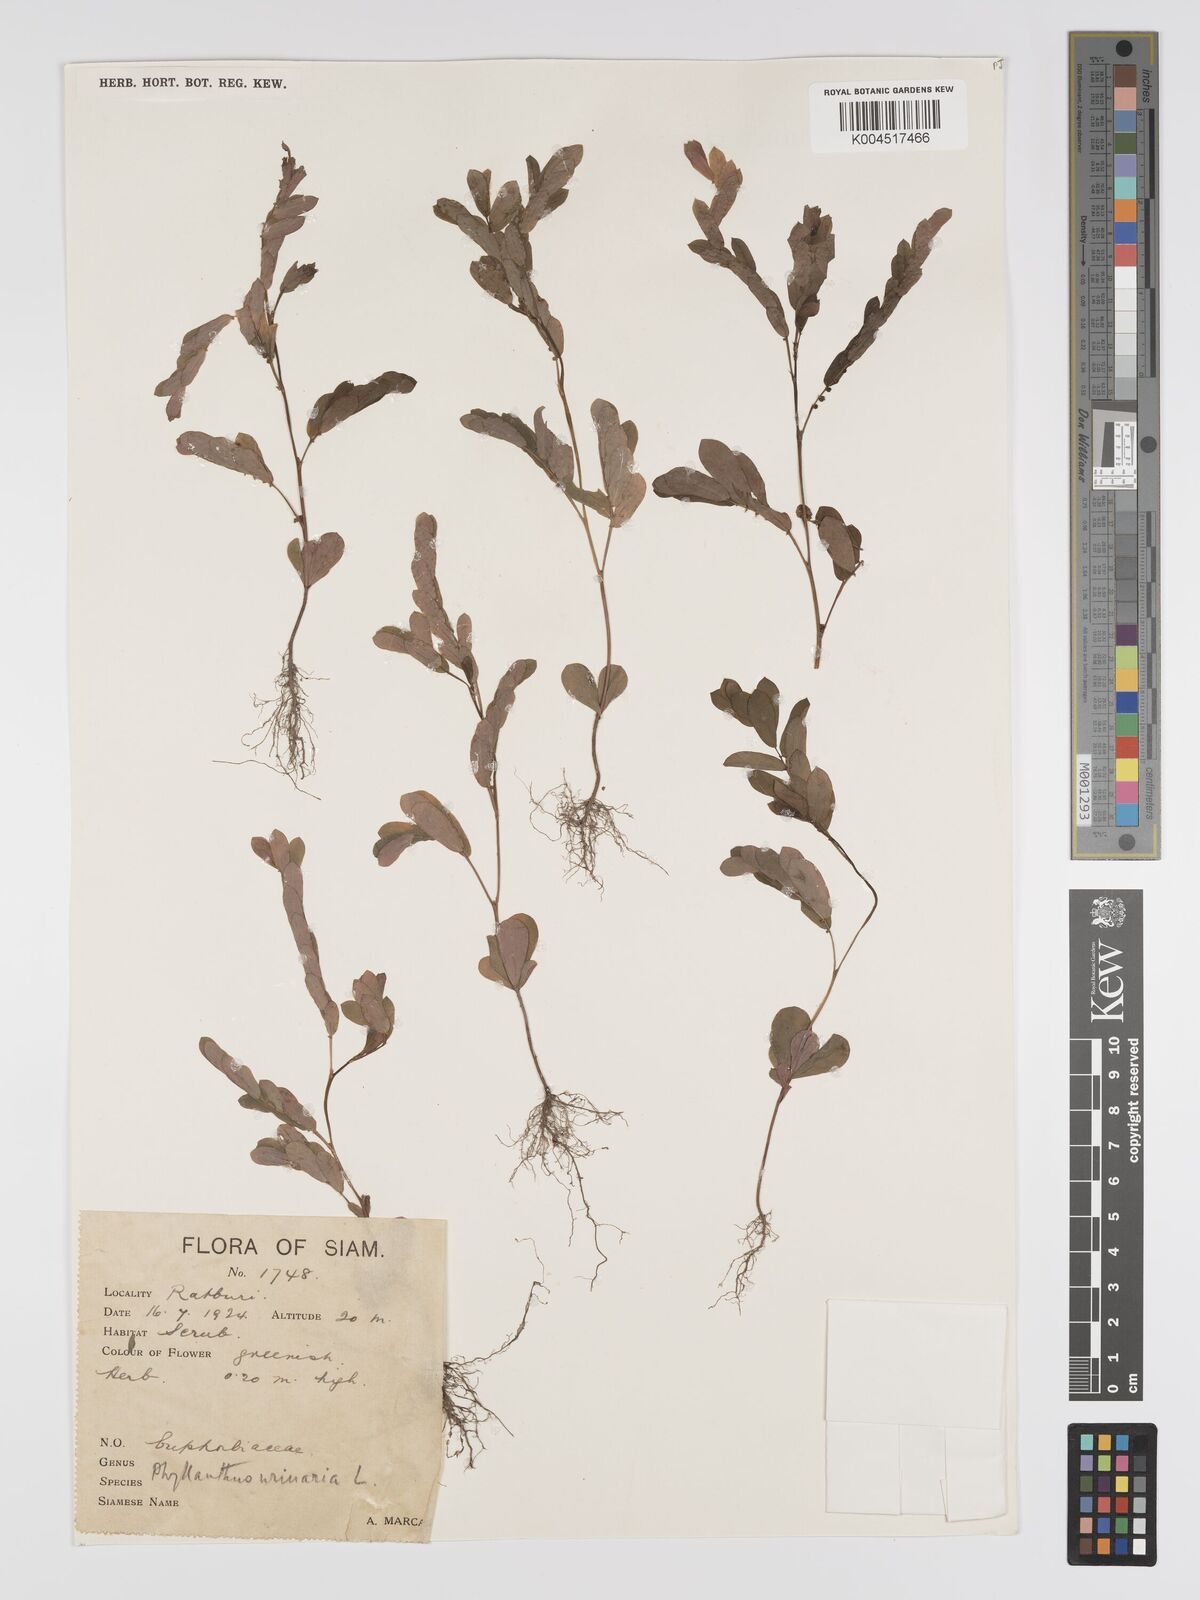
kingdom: Plantae
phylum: Tracheophyta
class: Magnoliopsida
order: Malpighiales
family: Phyllanthaceae
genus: Phyllanthus
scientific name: Phyllanthus urinaria
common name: Chamber bitter
